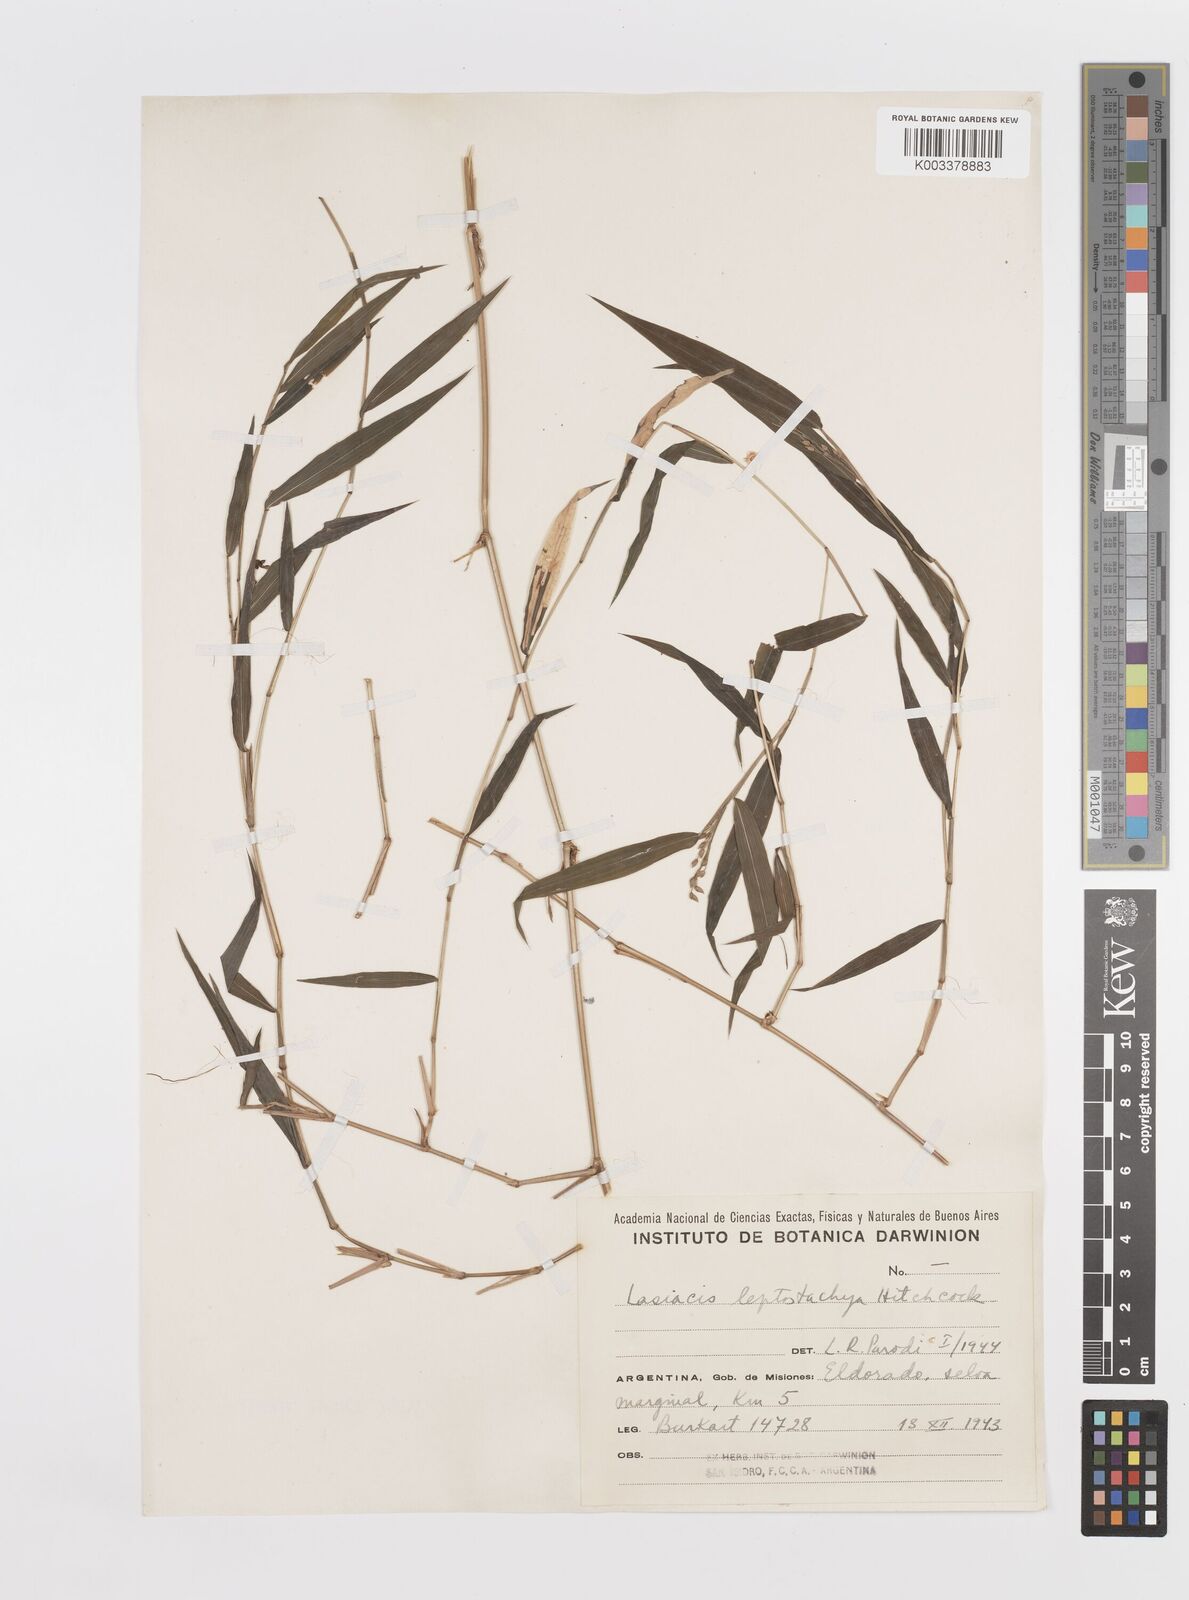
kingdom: Plantae
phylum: Tracheophyta
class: Liliopsida
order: Poales
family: Poaceae
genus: Lasiacis
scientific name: Lasiacis divaricata
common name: Smallcane
